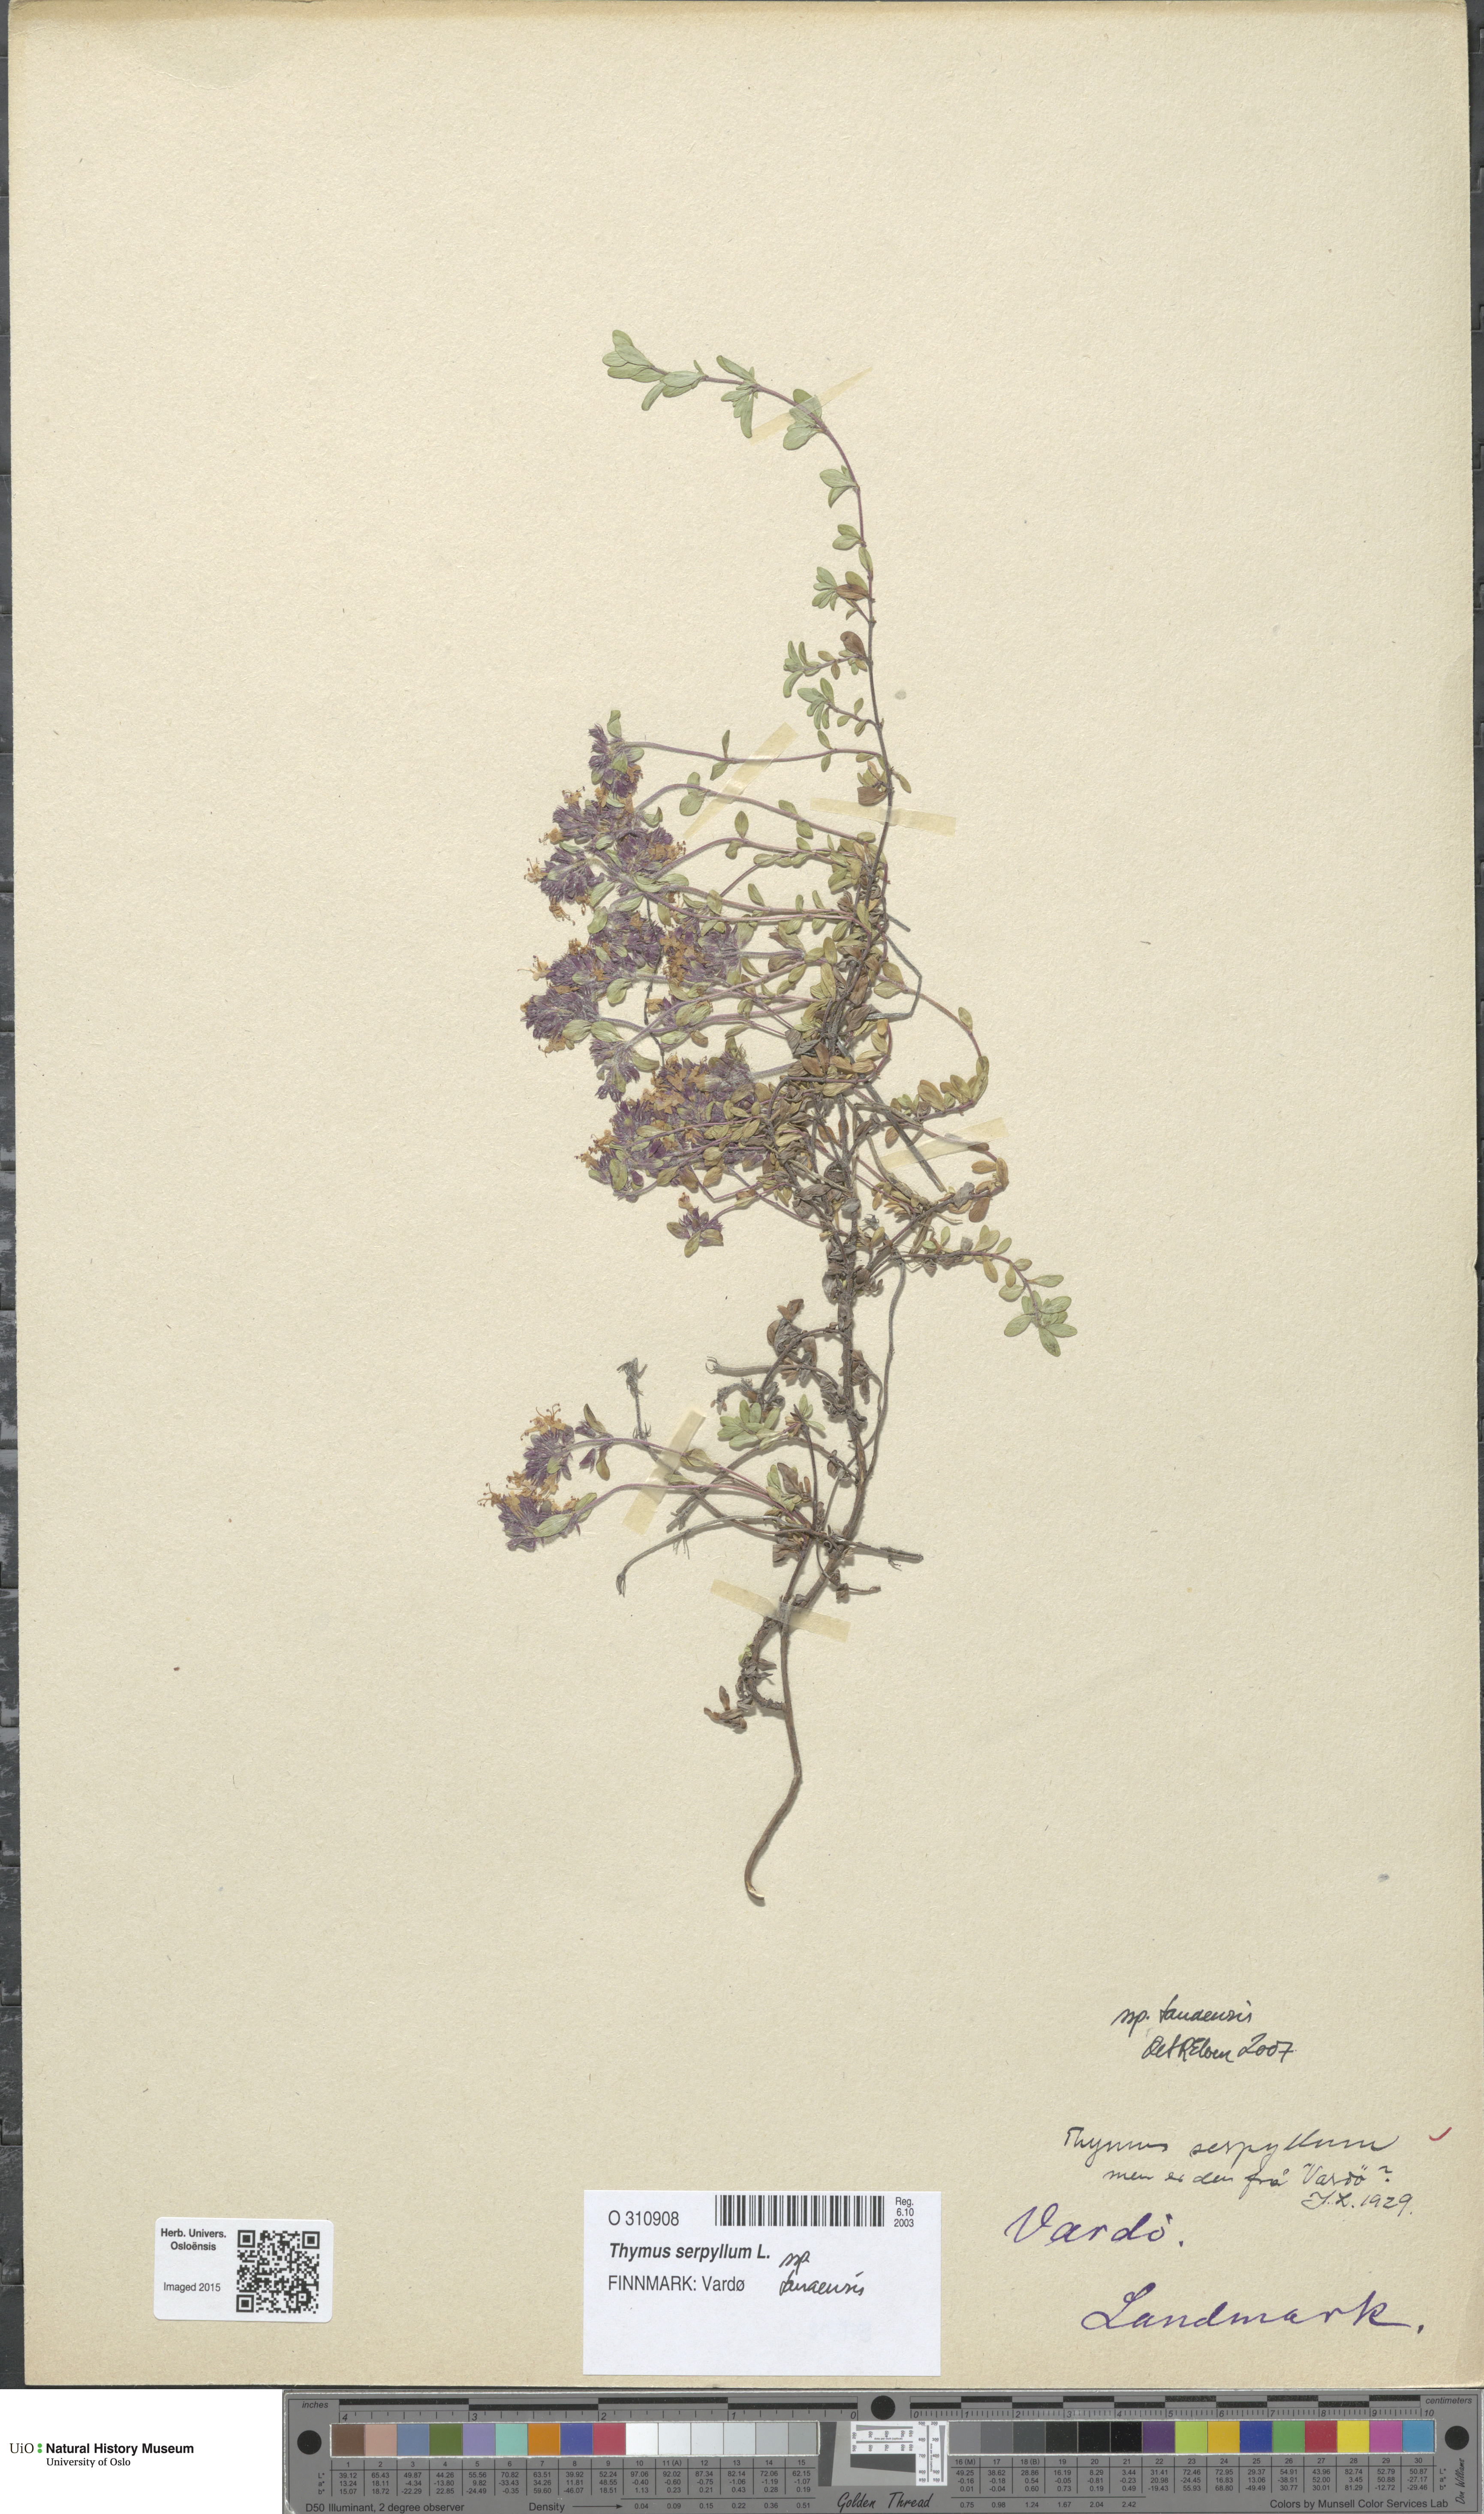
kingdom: Plantae
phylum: Tracheophyta
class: Magnoliopsida
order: Lamiales
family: Lamiaceae
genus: Thymus
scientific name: Thymus serpyllum
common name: Breckland thyme
